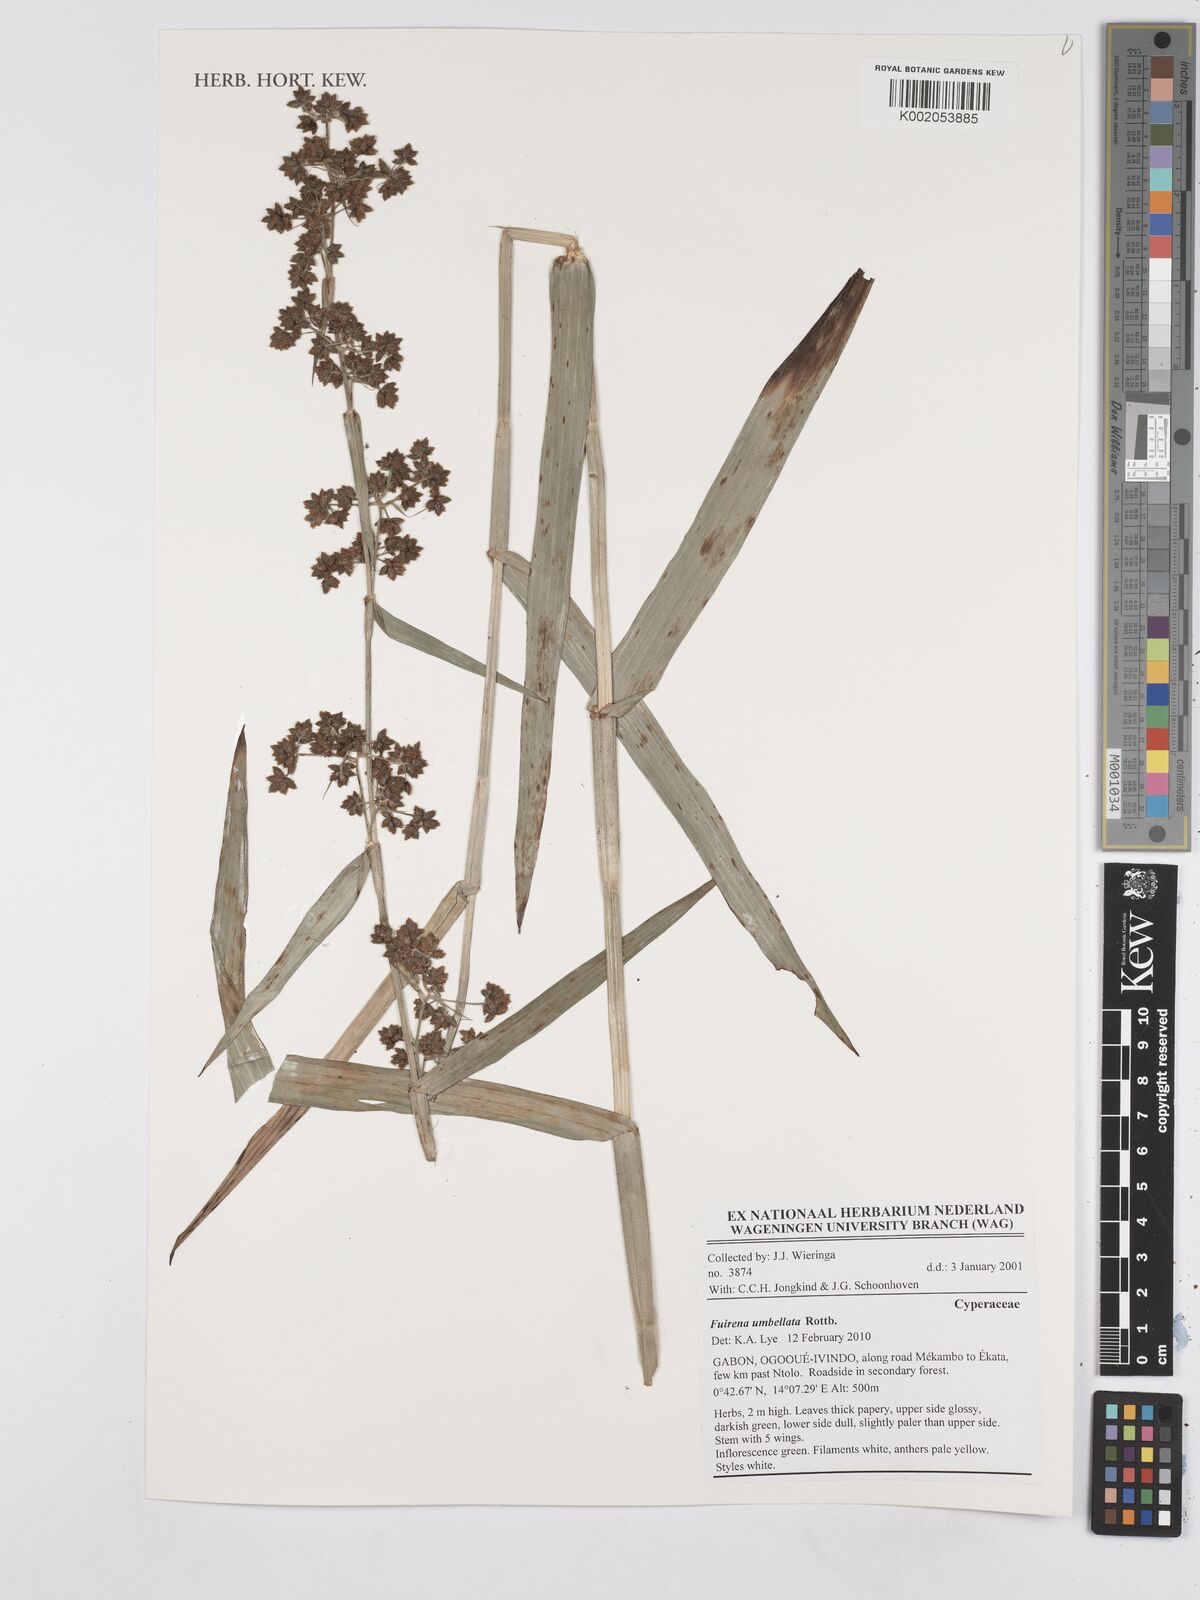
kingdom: Plantae
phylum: Tracheophyta
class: Liliopsida
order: Poales
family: Cyperaceae
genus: Fuirena
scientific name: Fuirena umbellata
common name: Yefen
